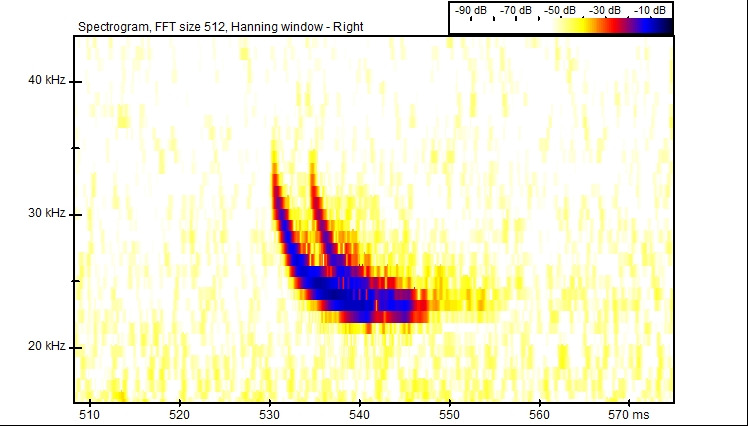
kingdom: Animalia
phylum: Chordata
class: Mammalia
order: Chiroptera
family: Vespertilionidae
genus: Vespertilio
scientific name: Vespertilio murinus
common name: Skimmelflagermus
